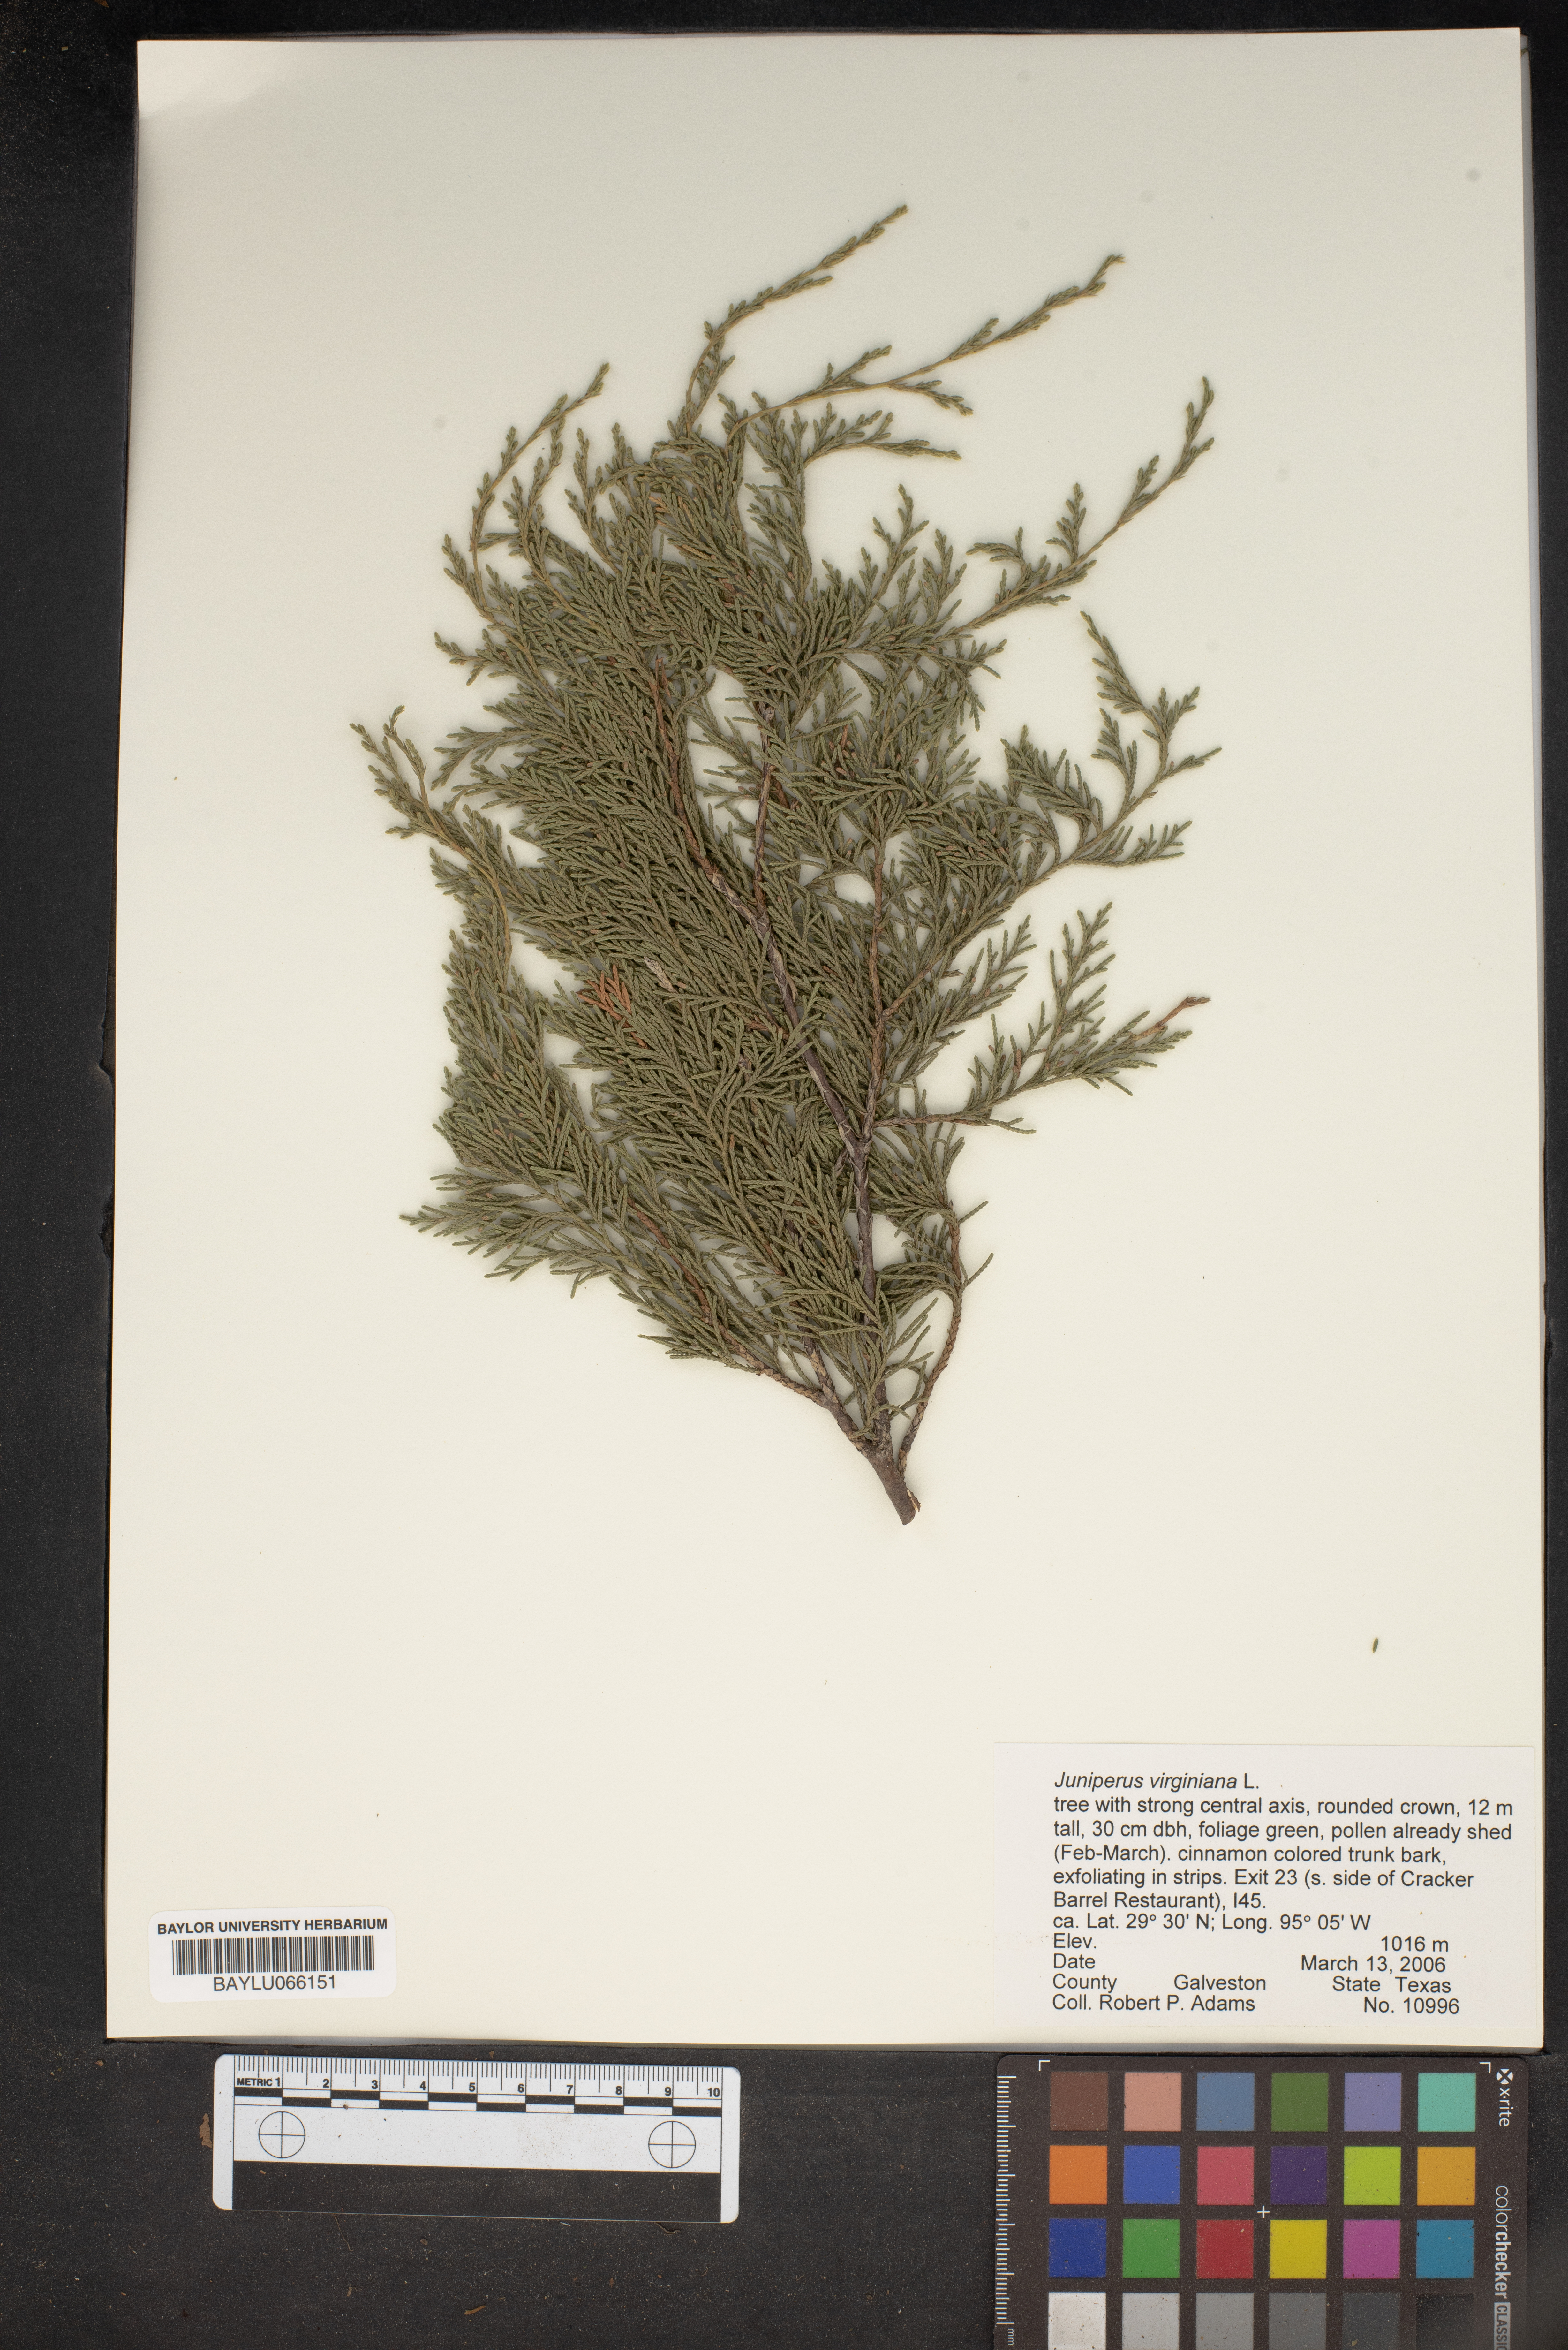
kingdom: Plantae
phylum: Tracheophyta
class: Pinopsida
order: Pinales
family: Cupressaceae
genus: Juniperus
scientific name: Juniperus virginiana
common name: Red juniper
